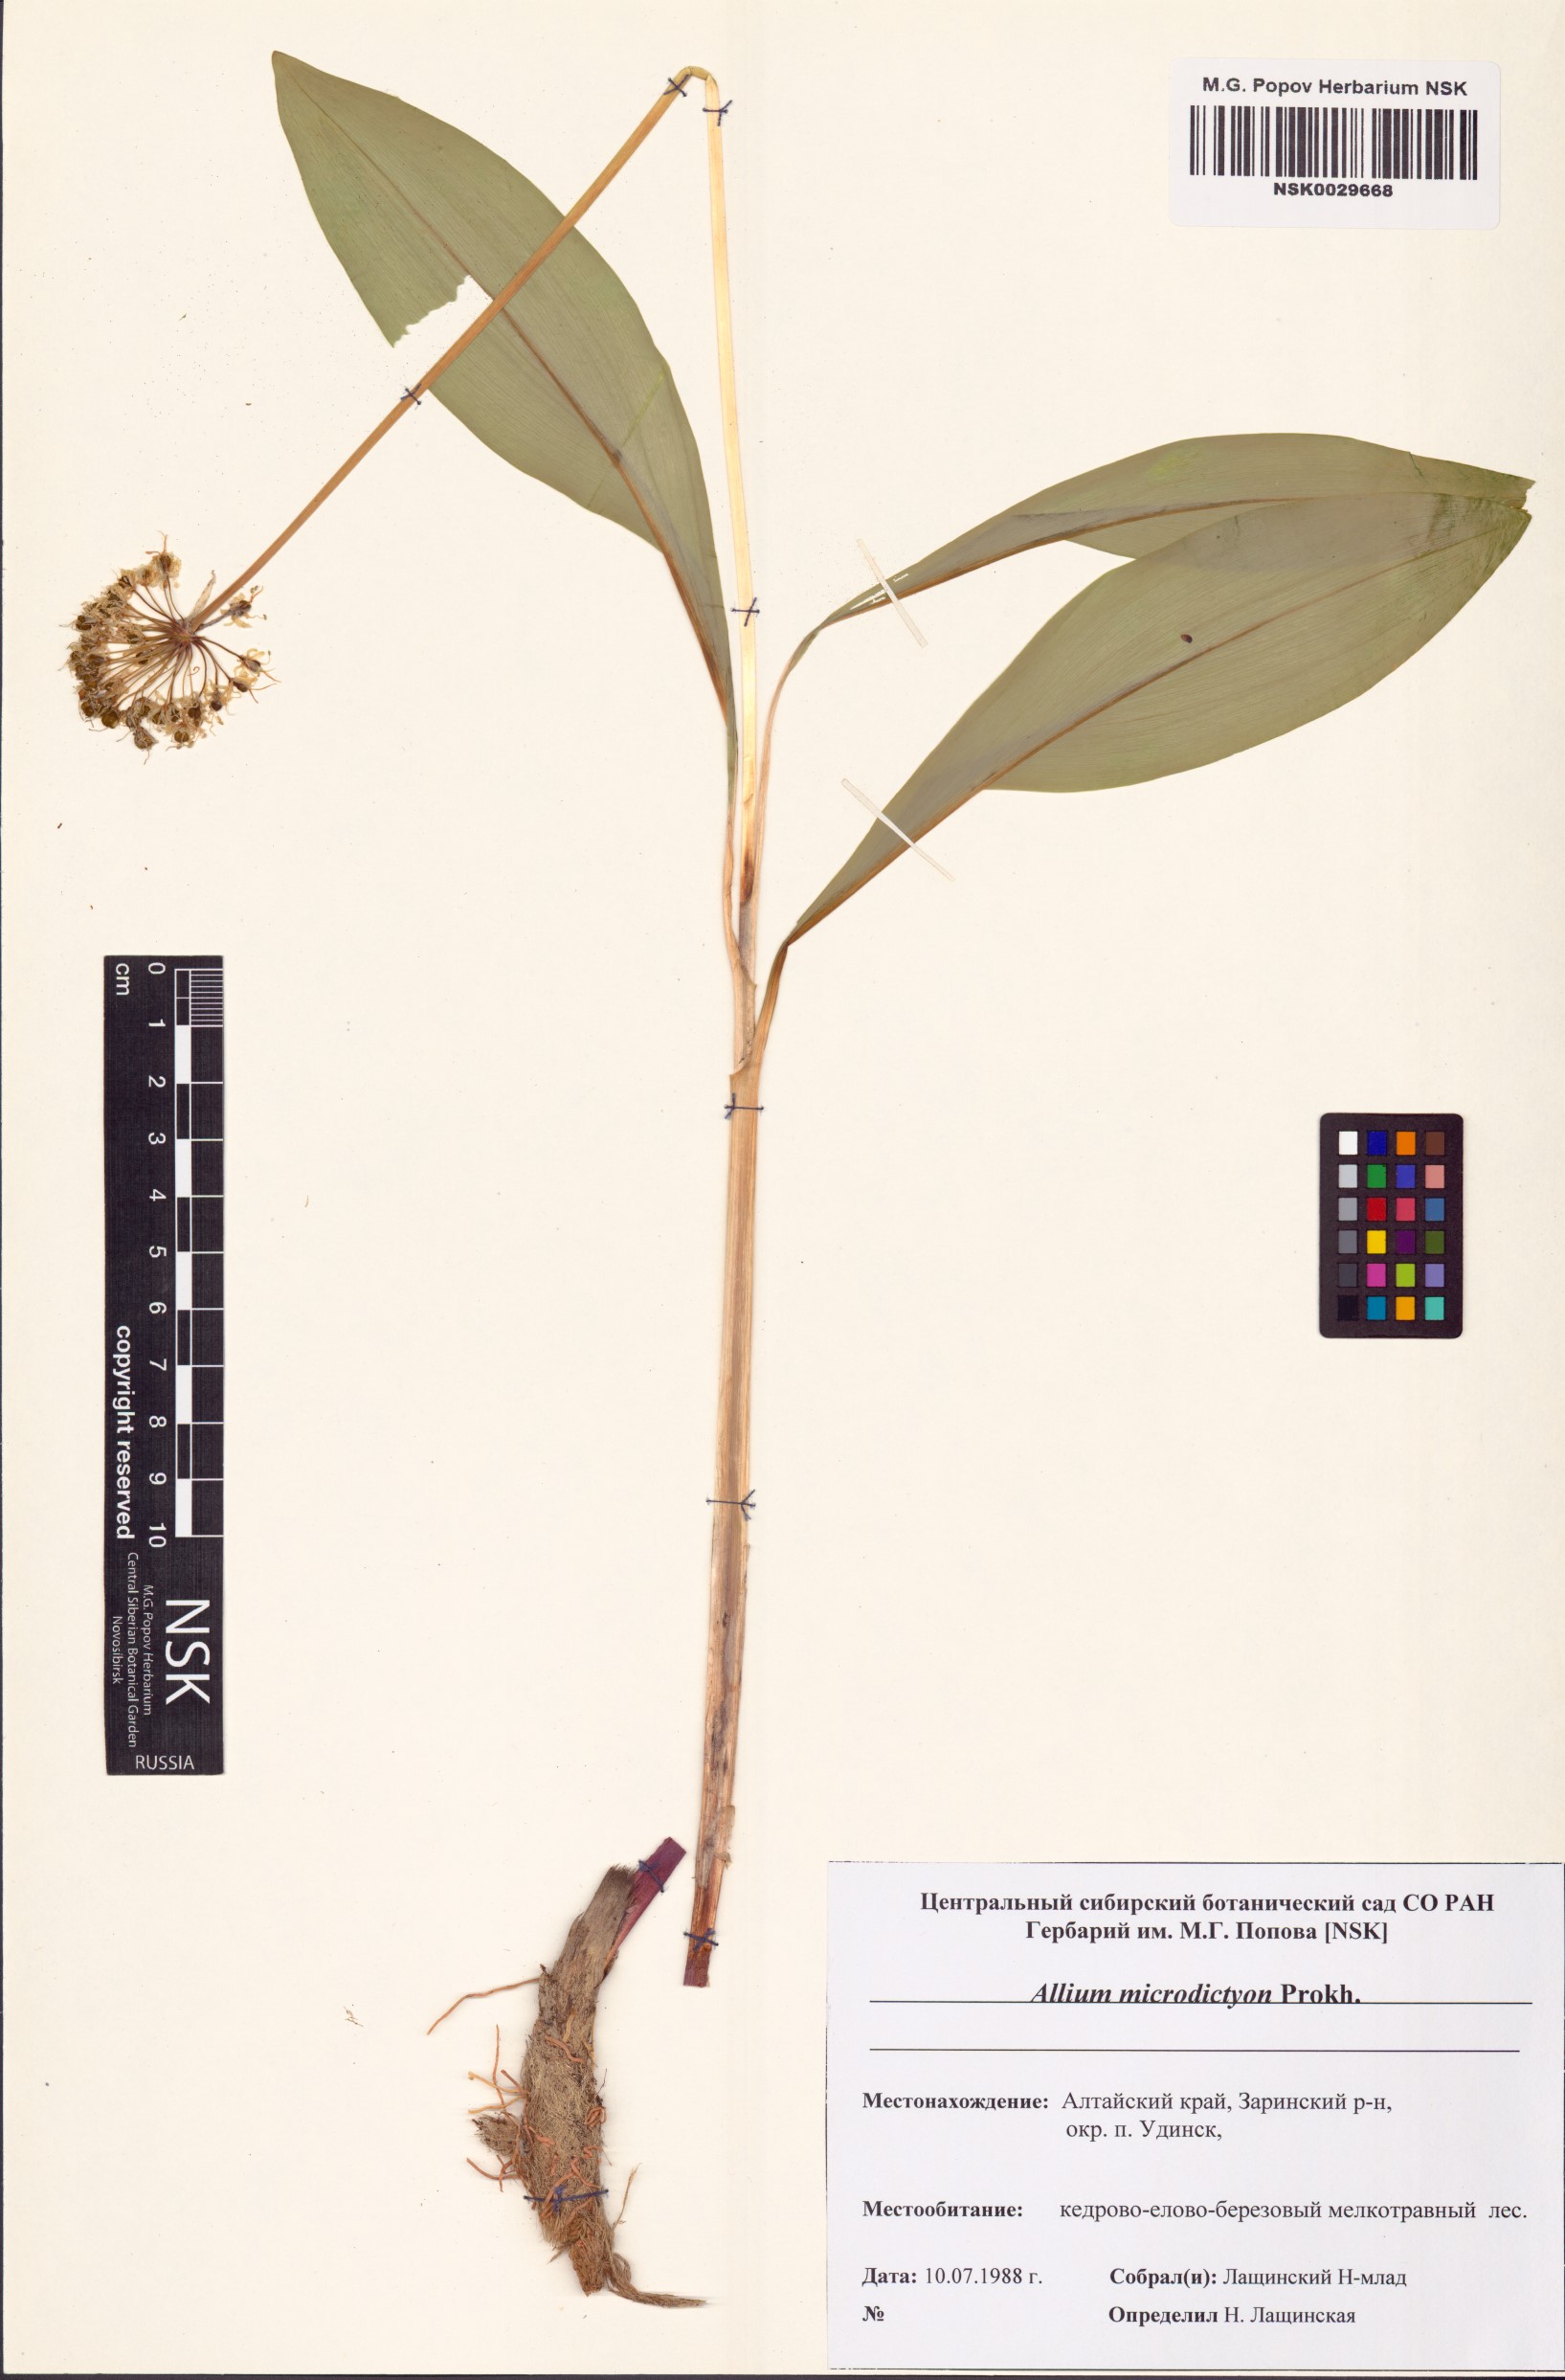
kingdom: Plantae
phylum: Tracheophyta
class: Liliopsida
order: Asparagales
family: Amaryllidaceae
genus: Allium
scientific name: Allium microdictyon
